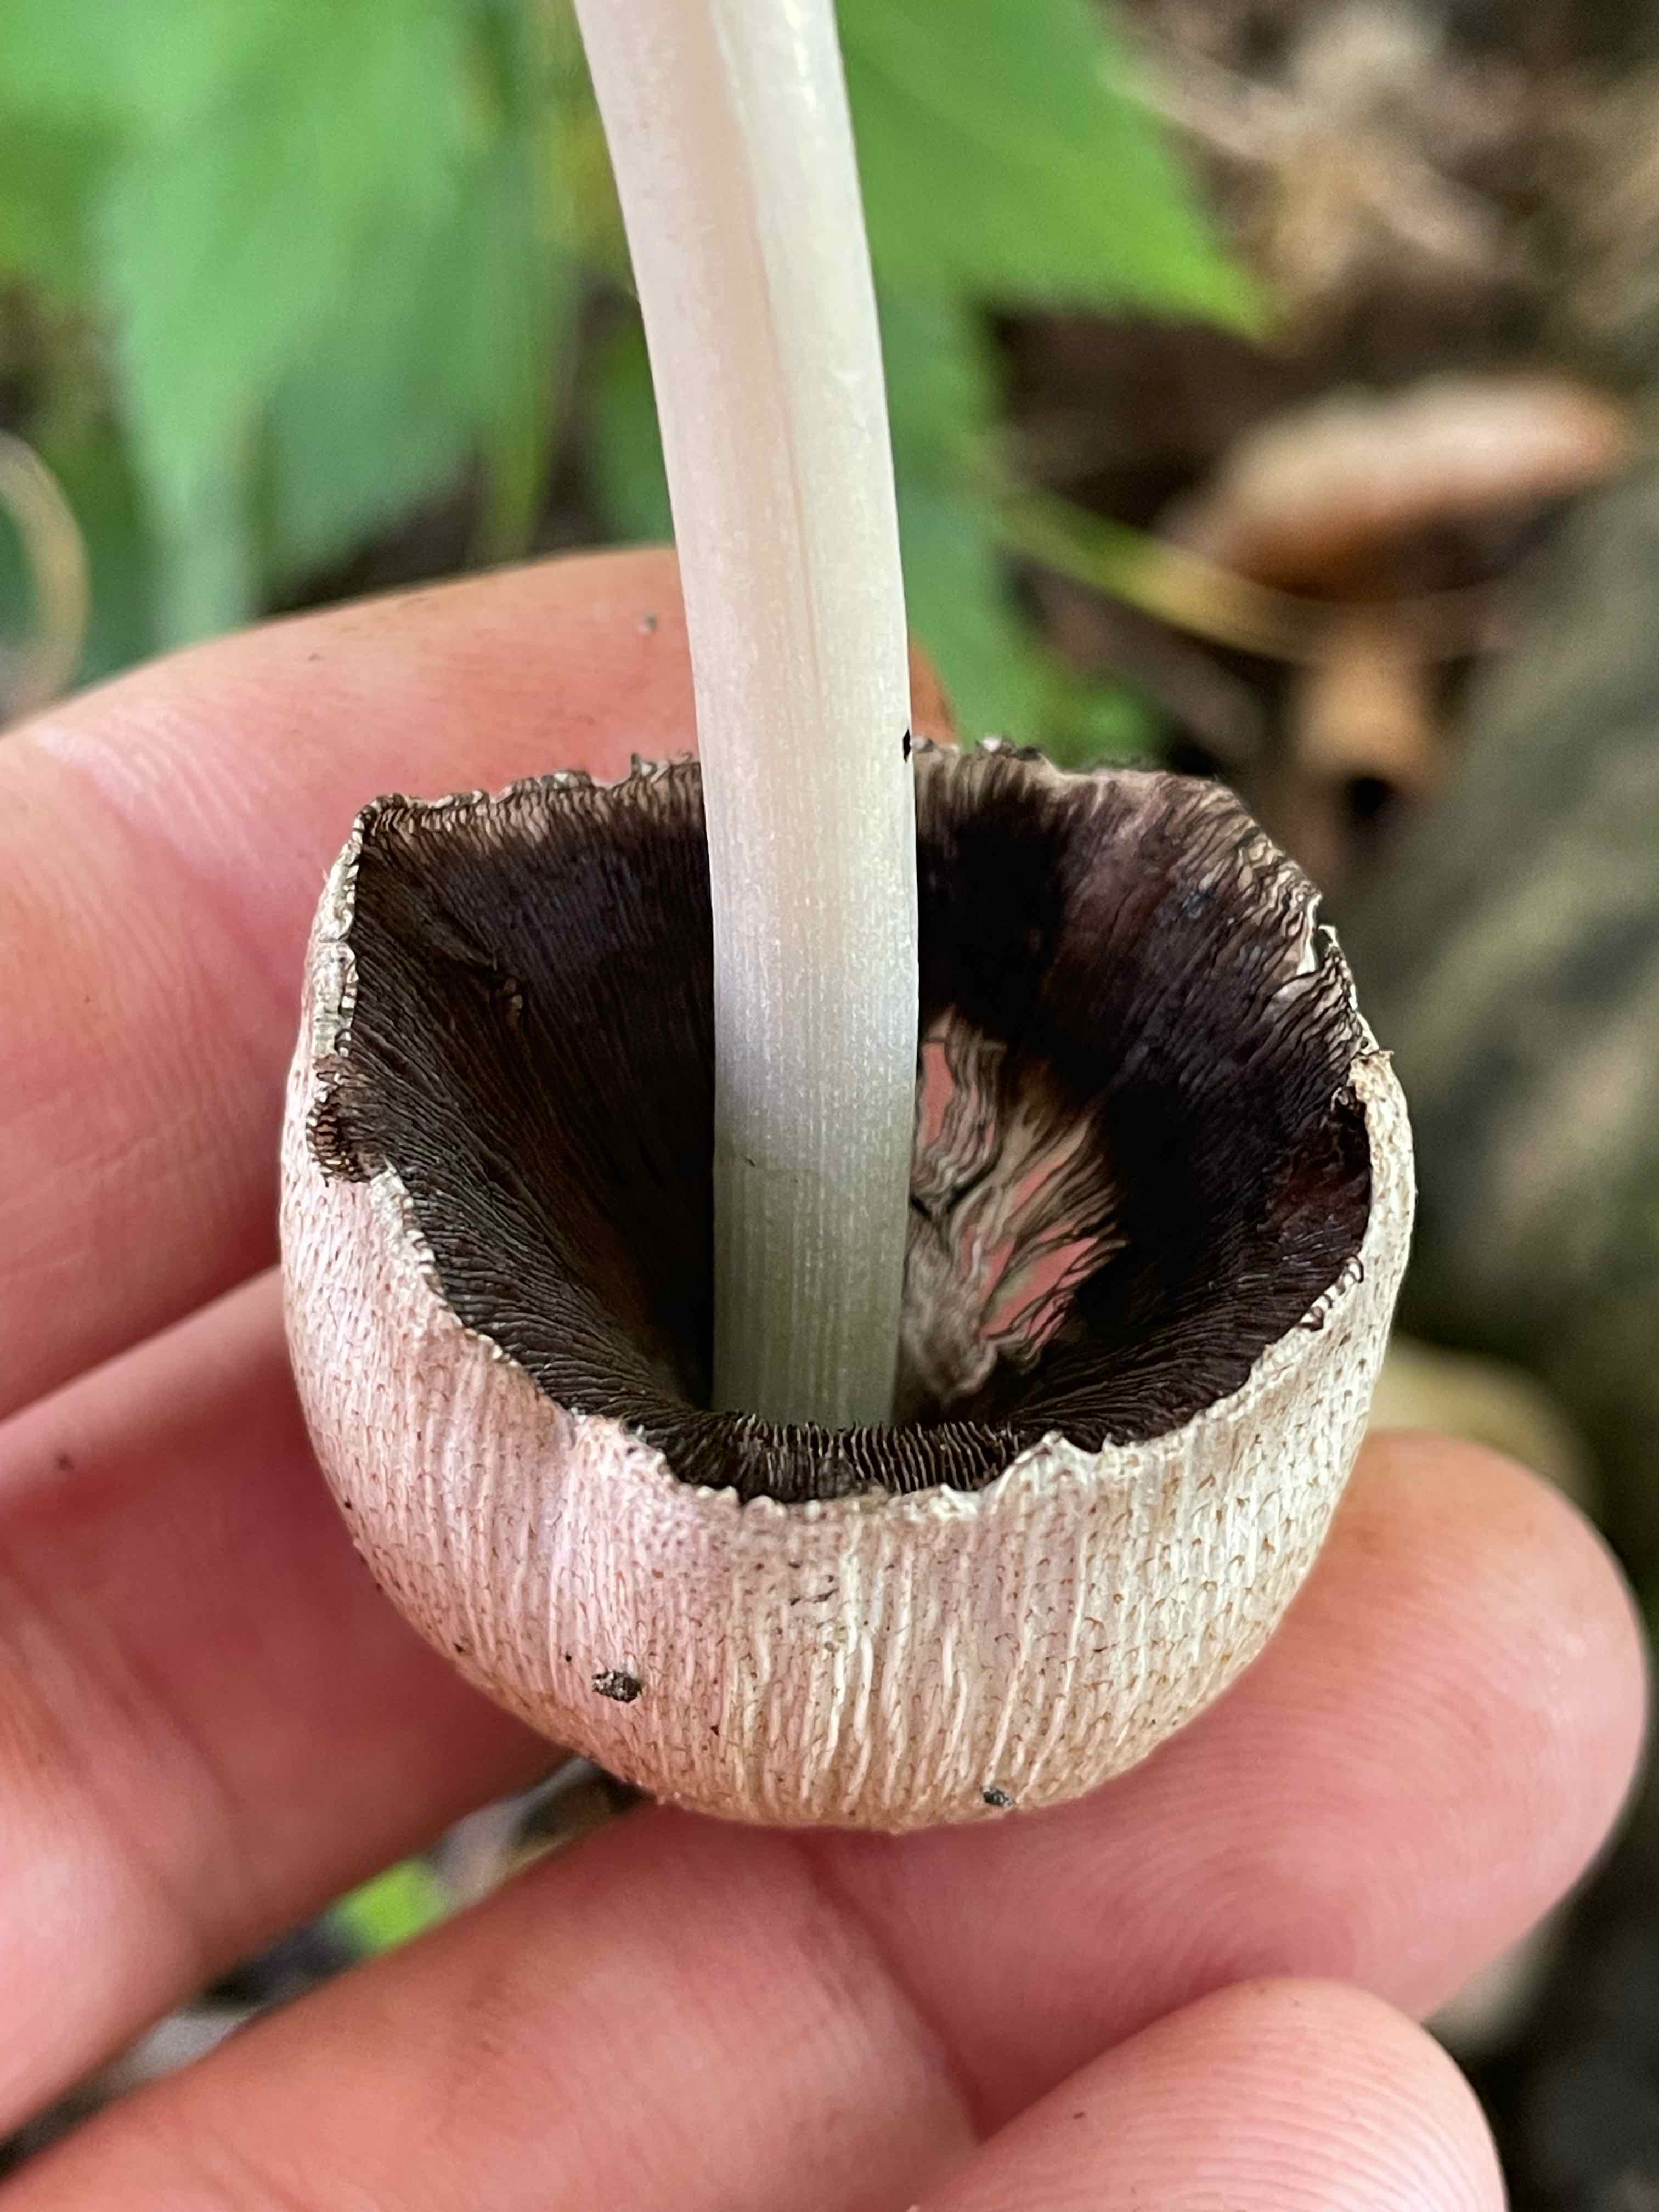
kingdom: Fungi
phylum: Basidiomycota
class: Agaricomycetes
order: Agaricales
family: Psathyrellaceae
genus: Coprinopsis
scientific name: Coprinopsis romagnesiana
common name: brunskællet blækhat
